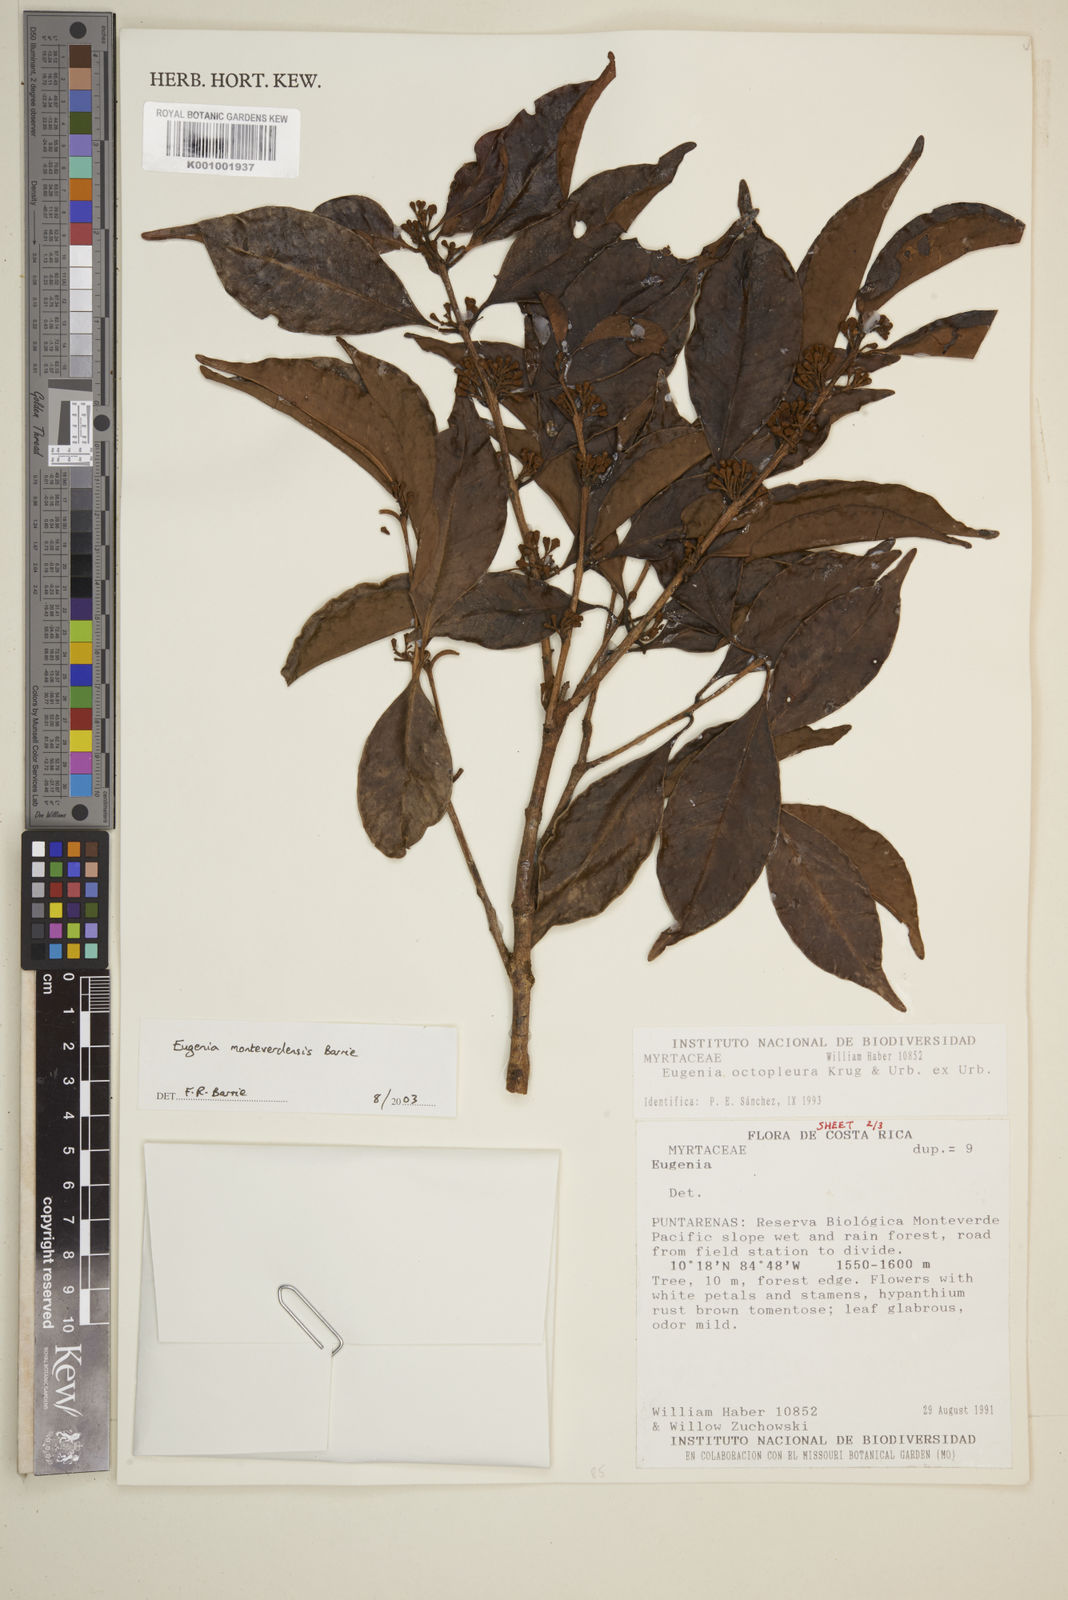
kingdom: Plantae
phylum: Tracheophyta
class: Magnoliopsida
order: Myrtales
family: Myrtaceae
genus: Eugenia
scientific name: Eugenia monteverdensis
